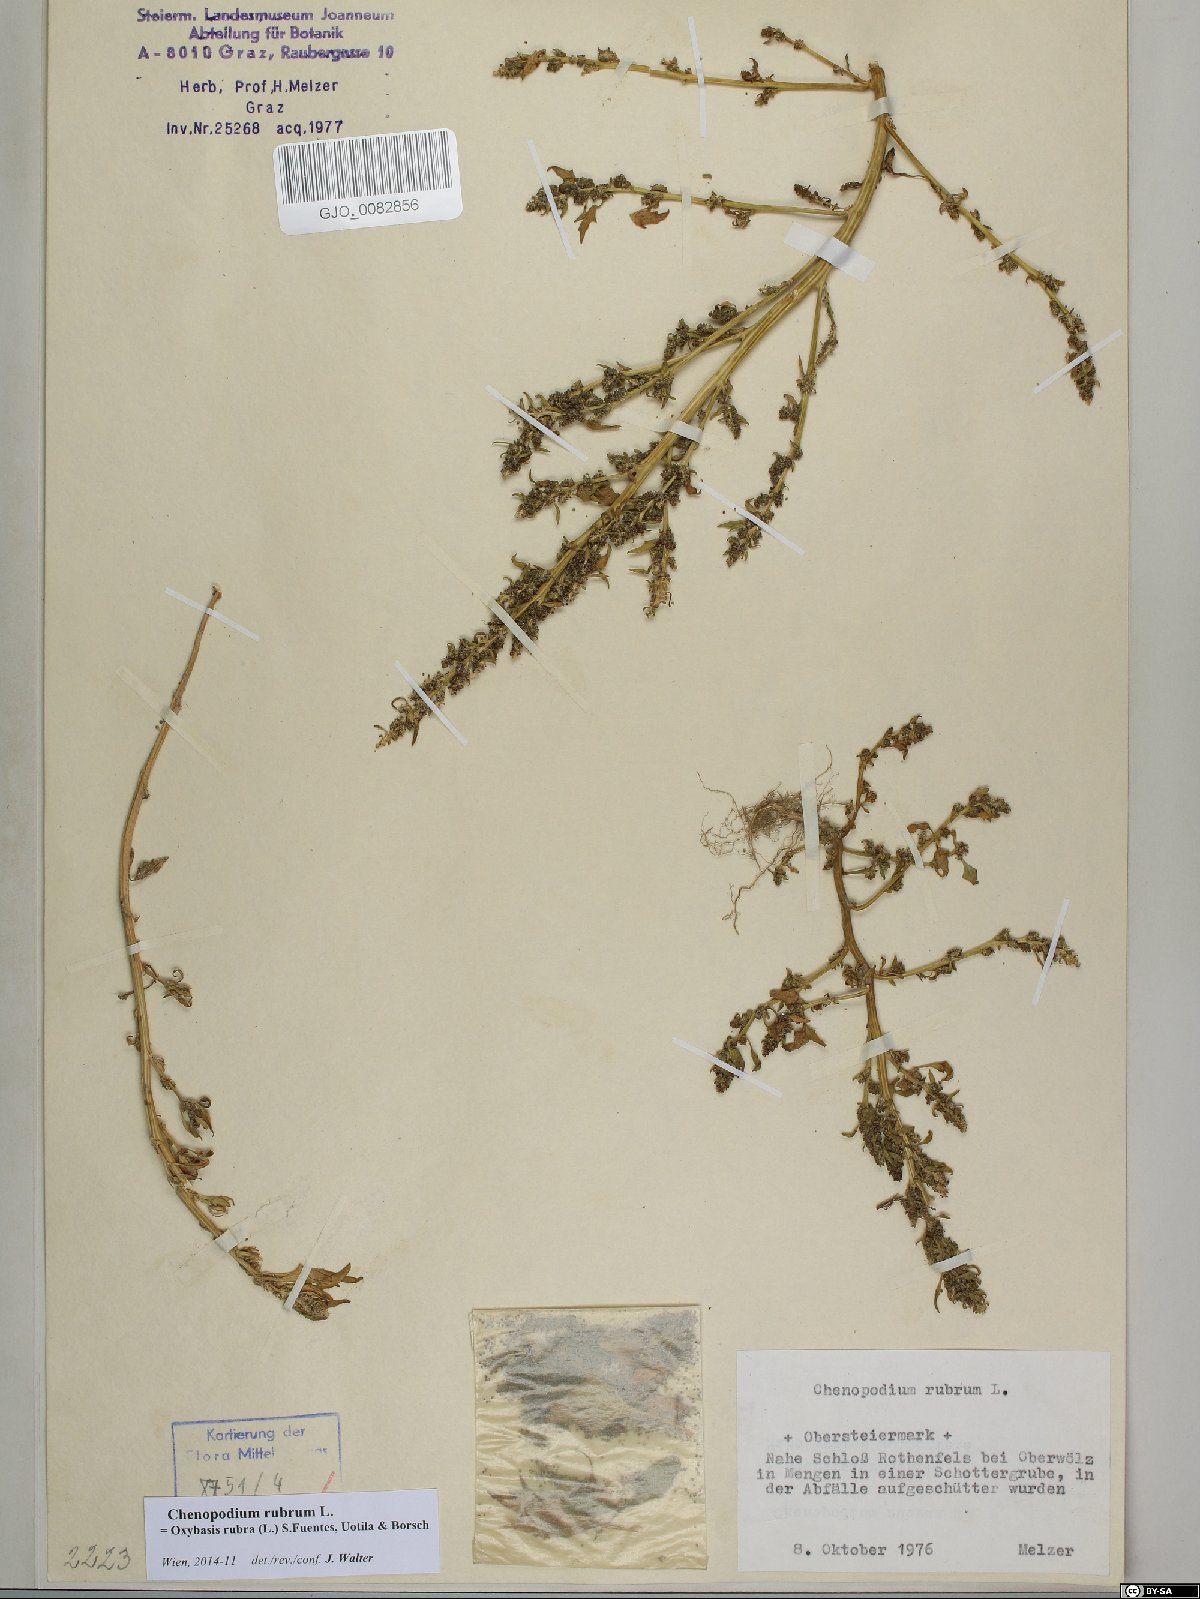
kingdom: Plantae
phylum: Tracheophyta
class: Magnoliopsida
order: Caryophyllales
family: Amaranthaceae
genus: Oxybasis
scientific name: Oxybasis rubra
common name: Red goosefoot
